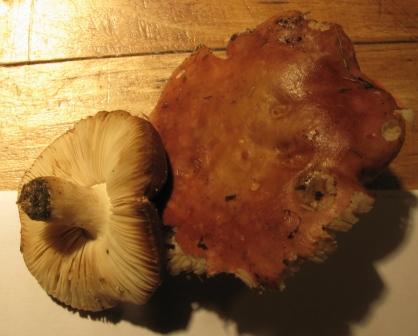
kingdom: Fungi
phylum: Basidiomycota
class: Agaricomycetes
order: Russulales
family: Russulaceae
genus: Russula
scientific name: Russula subrubens
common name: pile-skørhat
